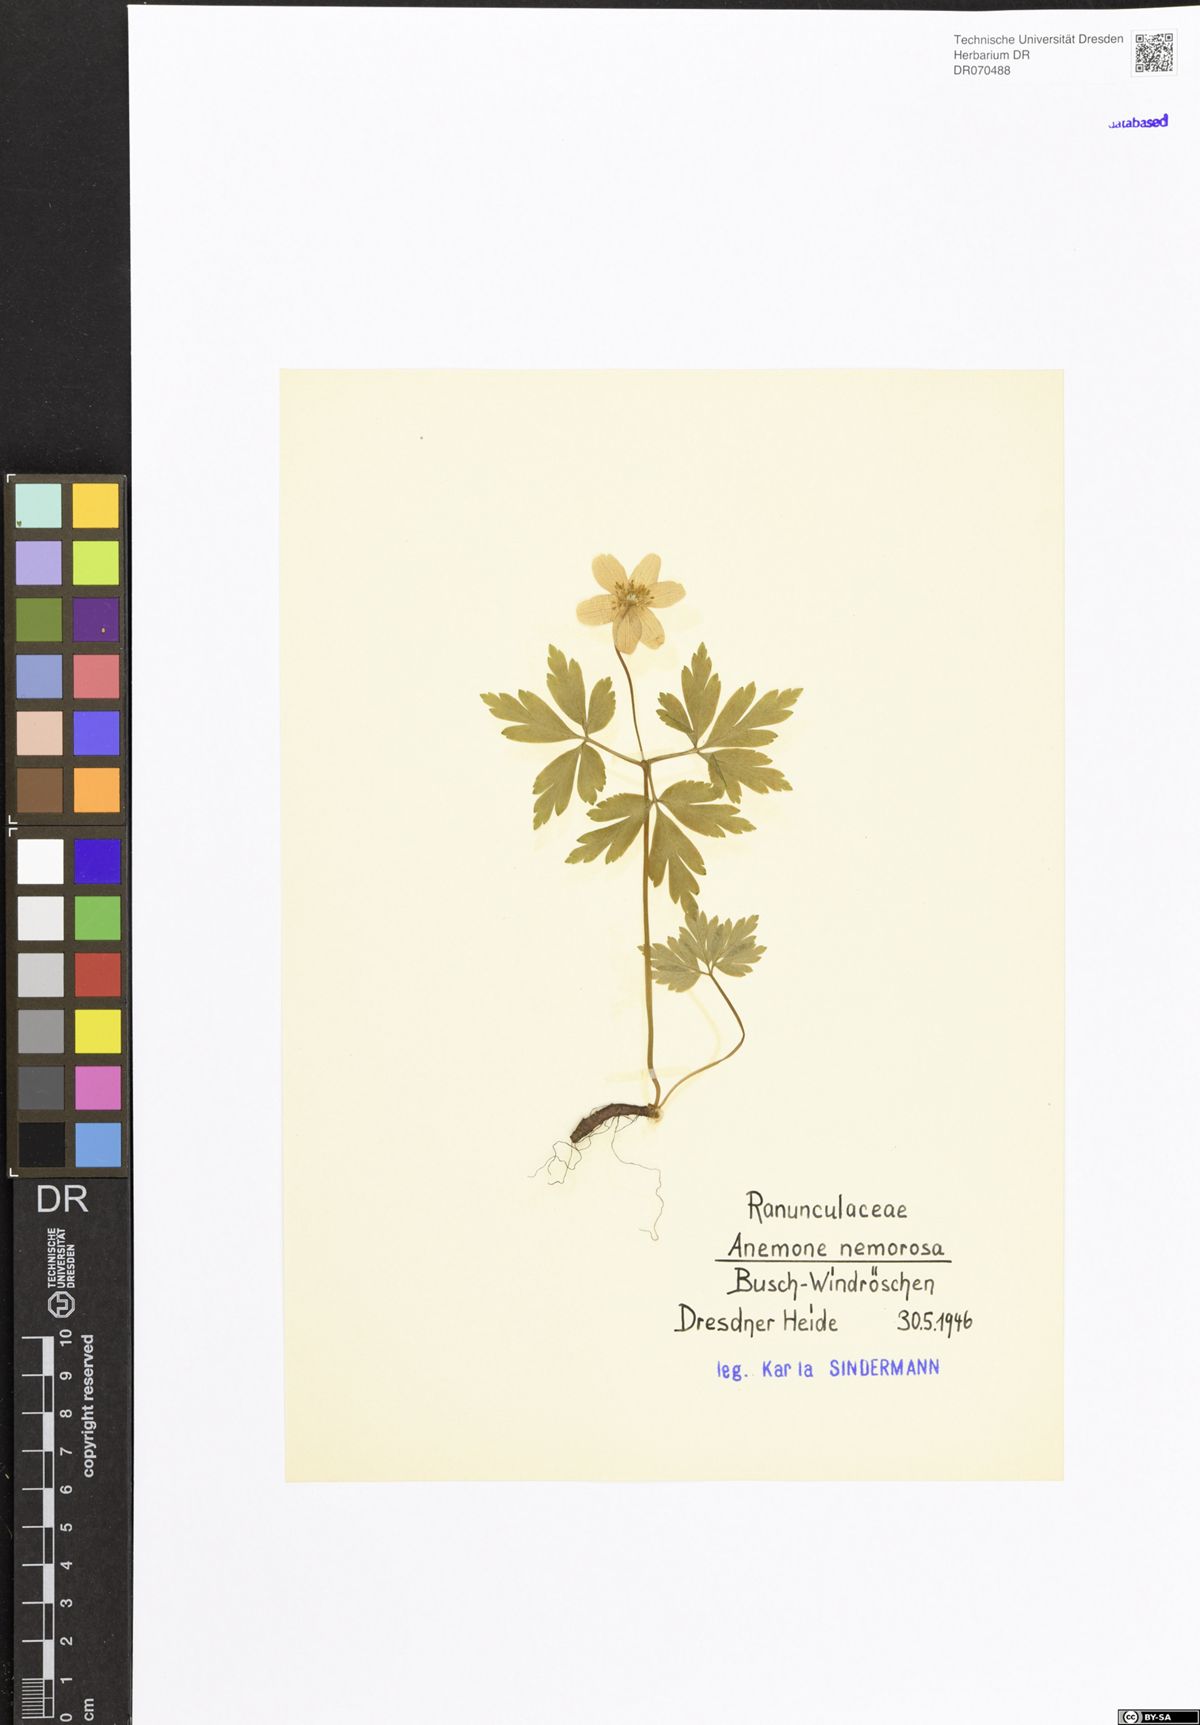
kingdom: Plantae
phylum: Tracheophyta
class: Magnoliopsida
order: Ranunculales
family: Ranunculaceae
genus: Anemone
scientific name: Anemone nemorosa
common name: Wood anemone
